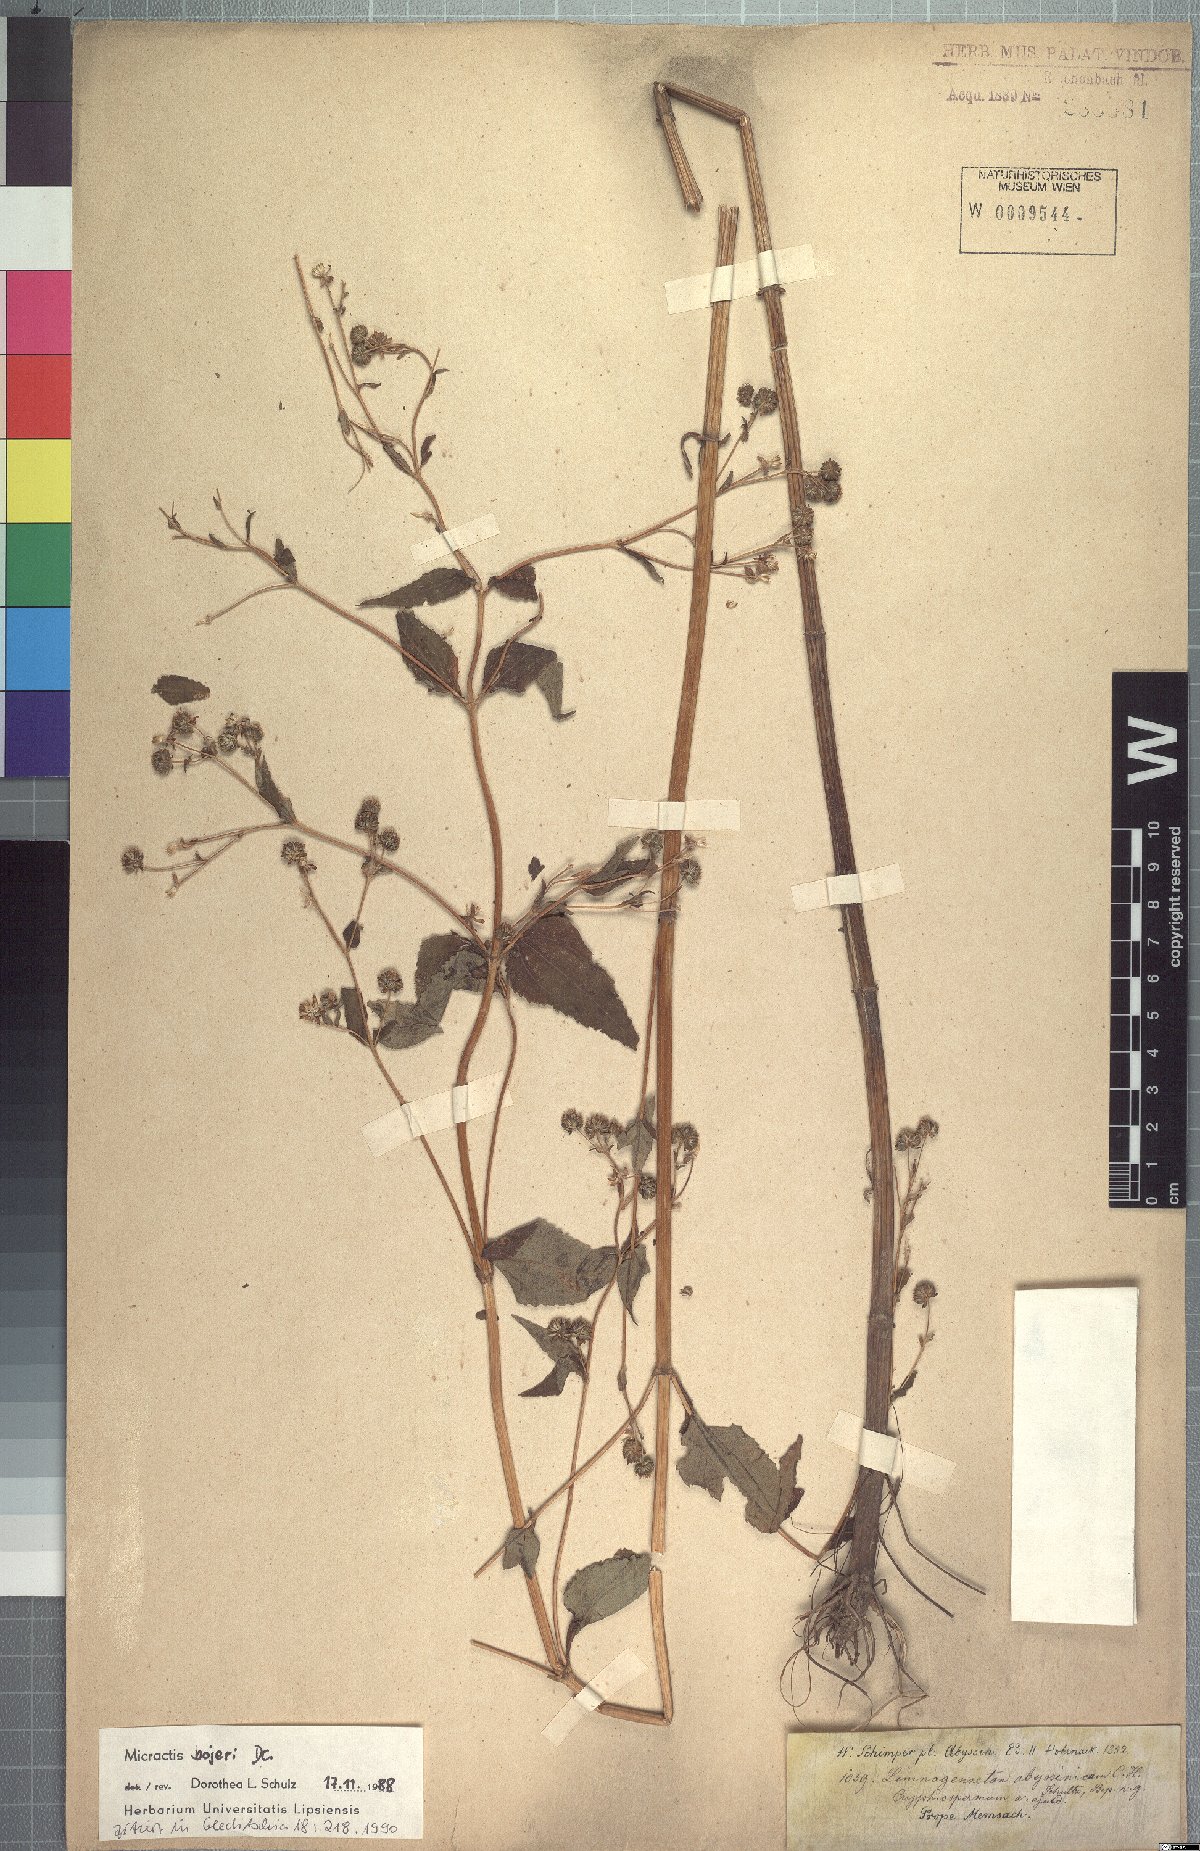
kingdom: Plantae
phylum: Tracheophyta
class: Magnoliopsida
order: Asterales
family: Asteraceae
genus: Micractis
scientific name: Micractis bojeri
